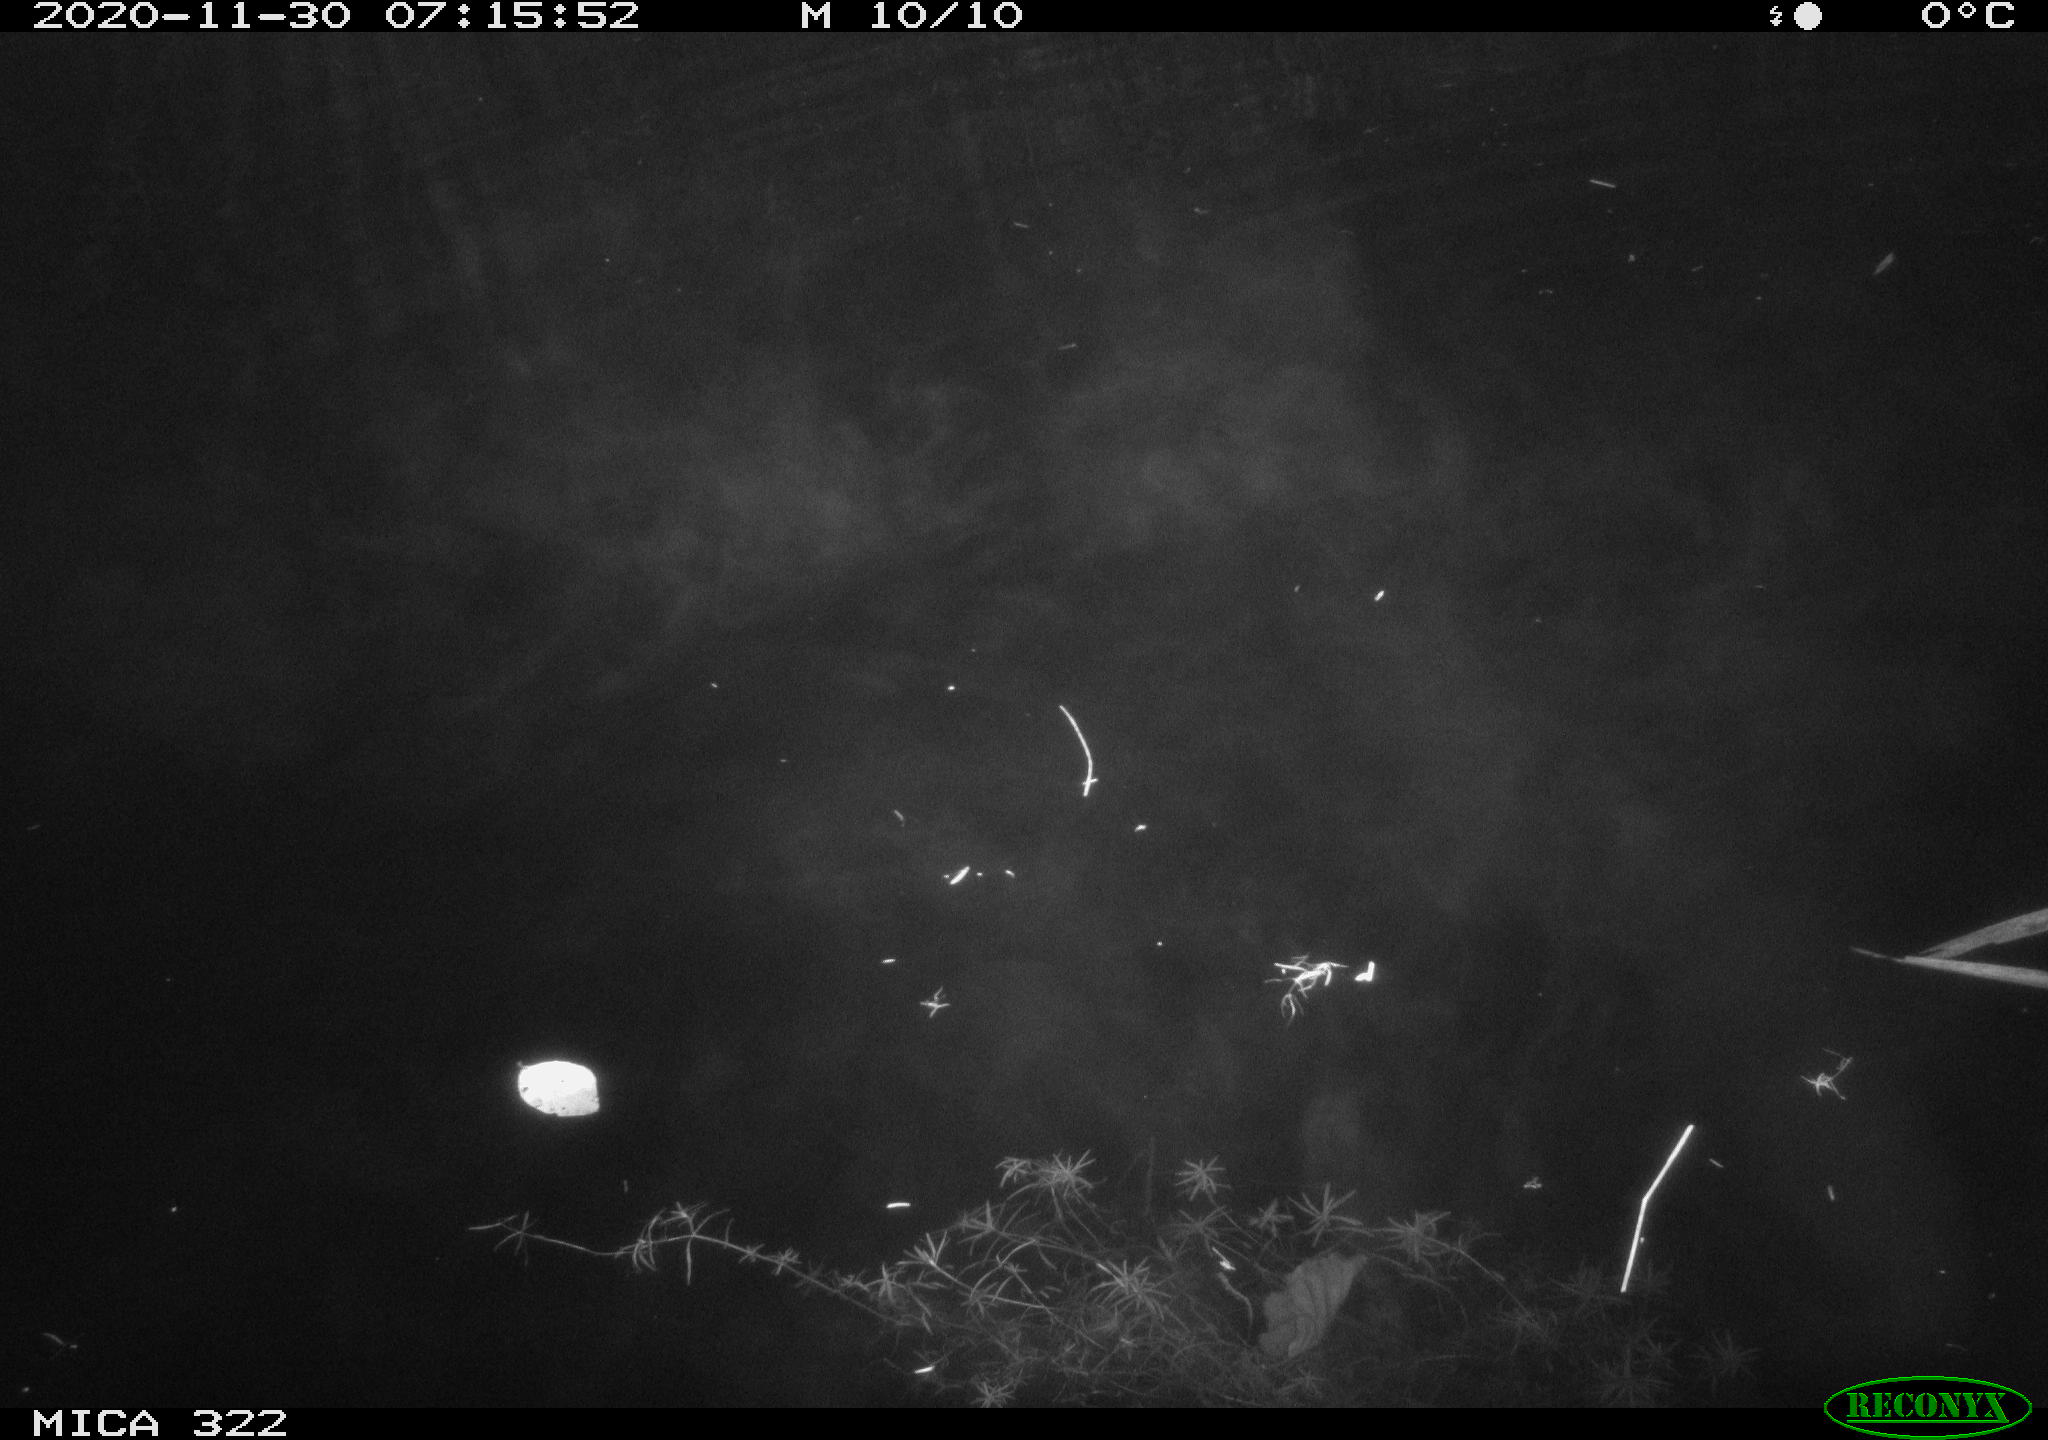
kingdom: Animalia
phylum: Chordata
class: Mammalia
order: Rodentia
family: Muridae
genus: Rattus
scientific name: Rattus norvegicus
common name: Brown rat
